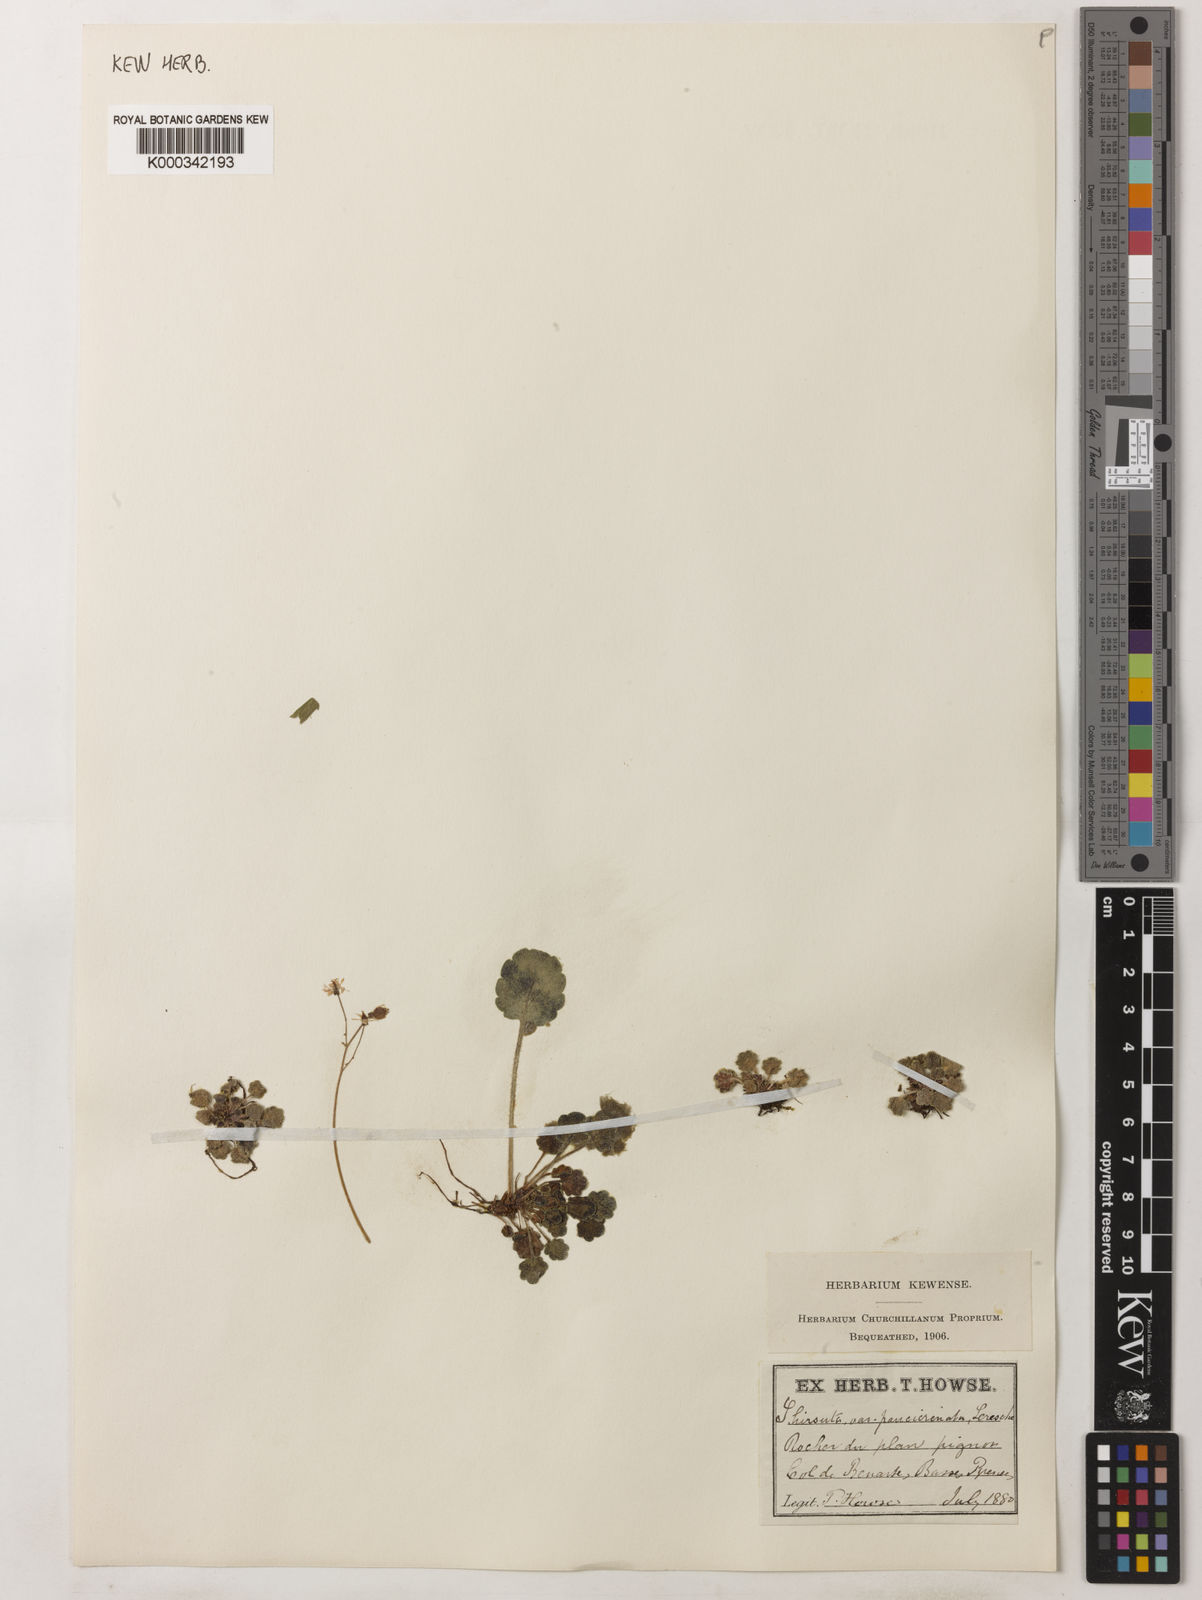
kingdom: Plantae
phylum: Tracheophyta
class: Magnoliopsida
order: Saxifragales
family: Saxifragaceae
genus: Saxifraga
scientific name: Saxifraga hirsuta
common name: Kidney saxifrage
